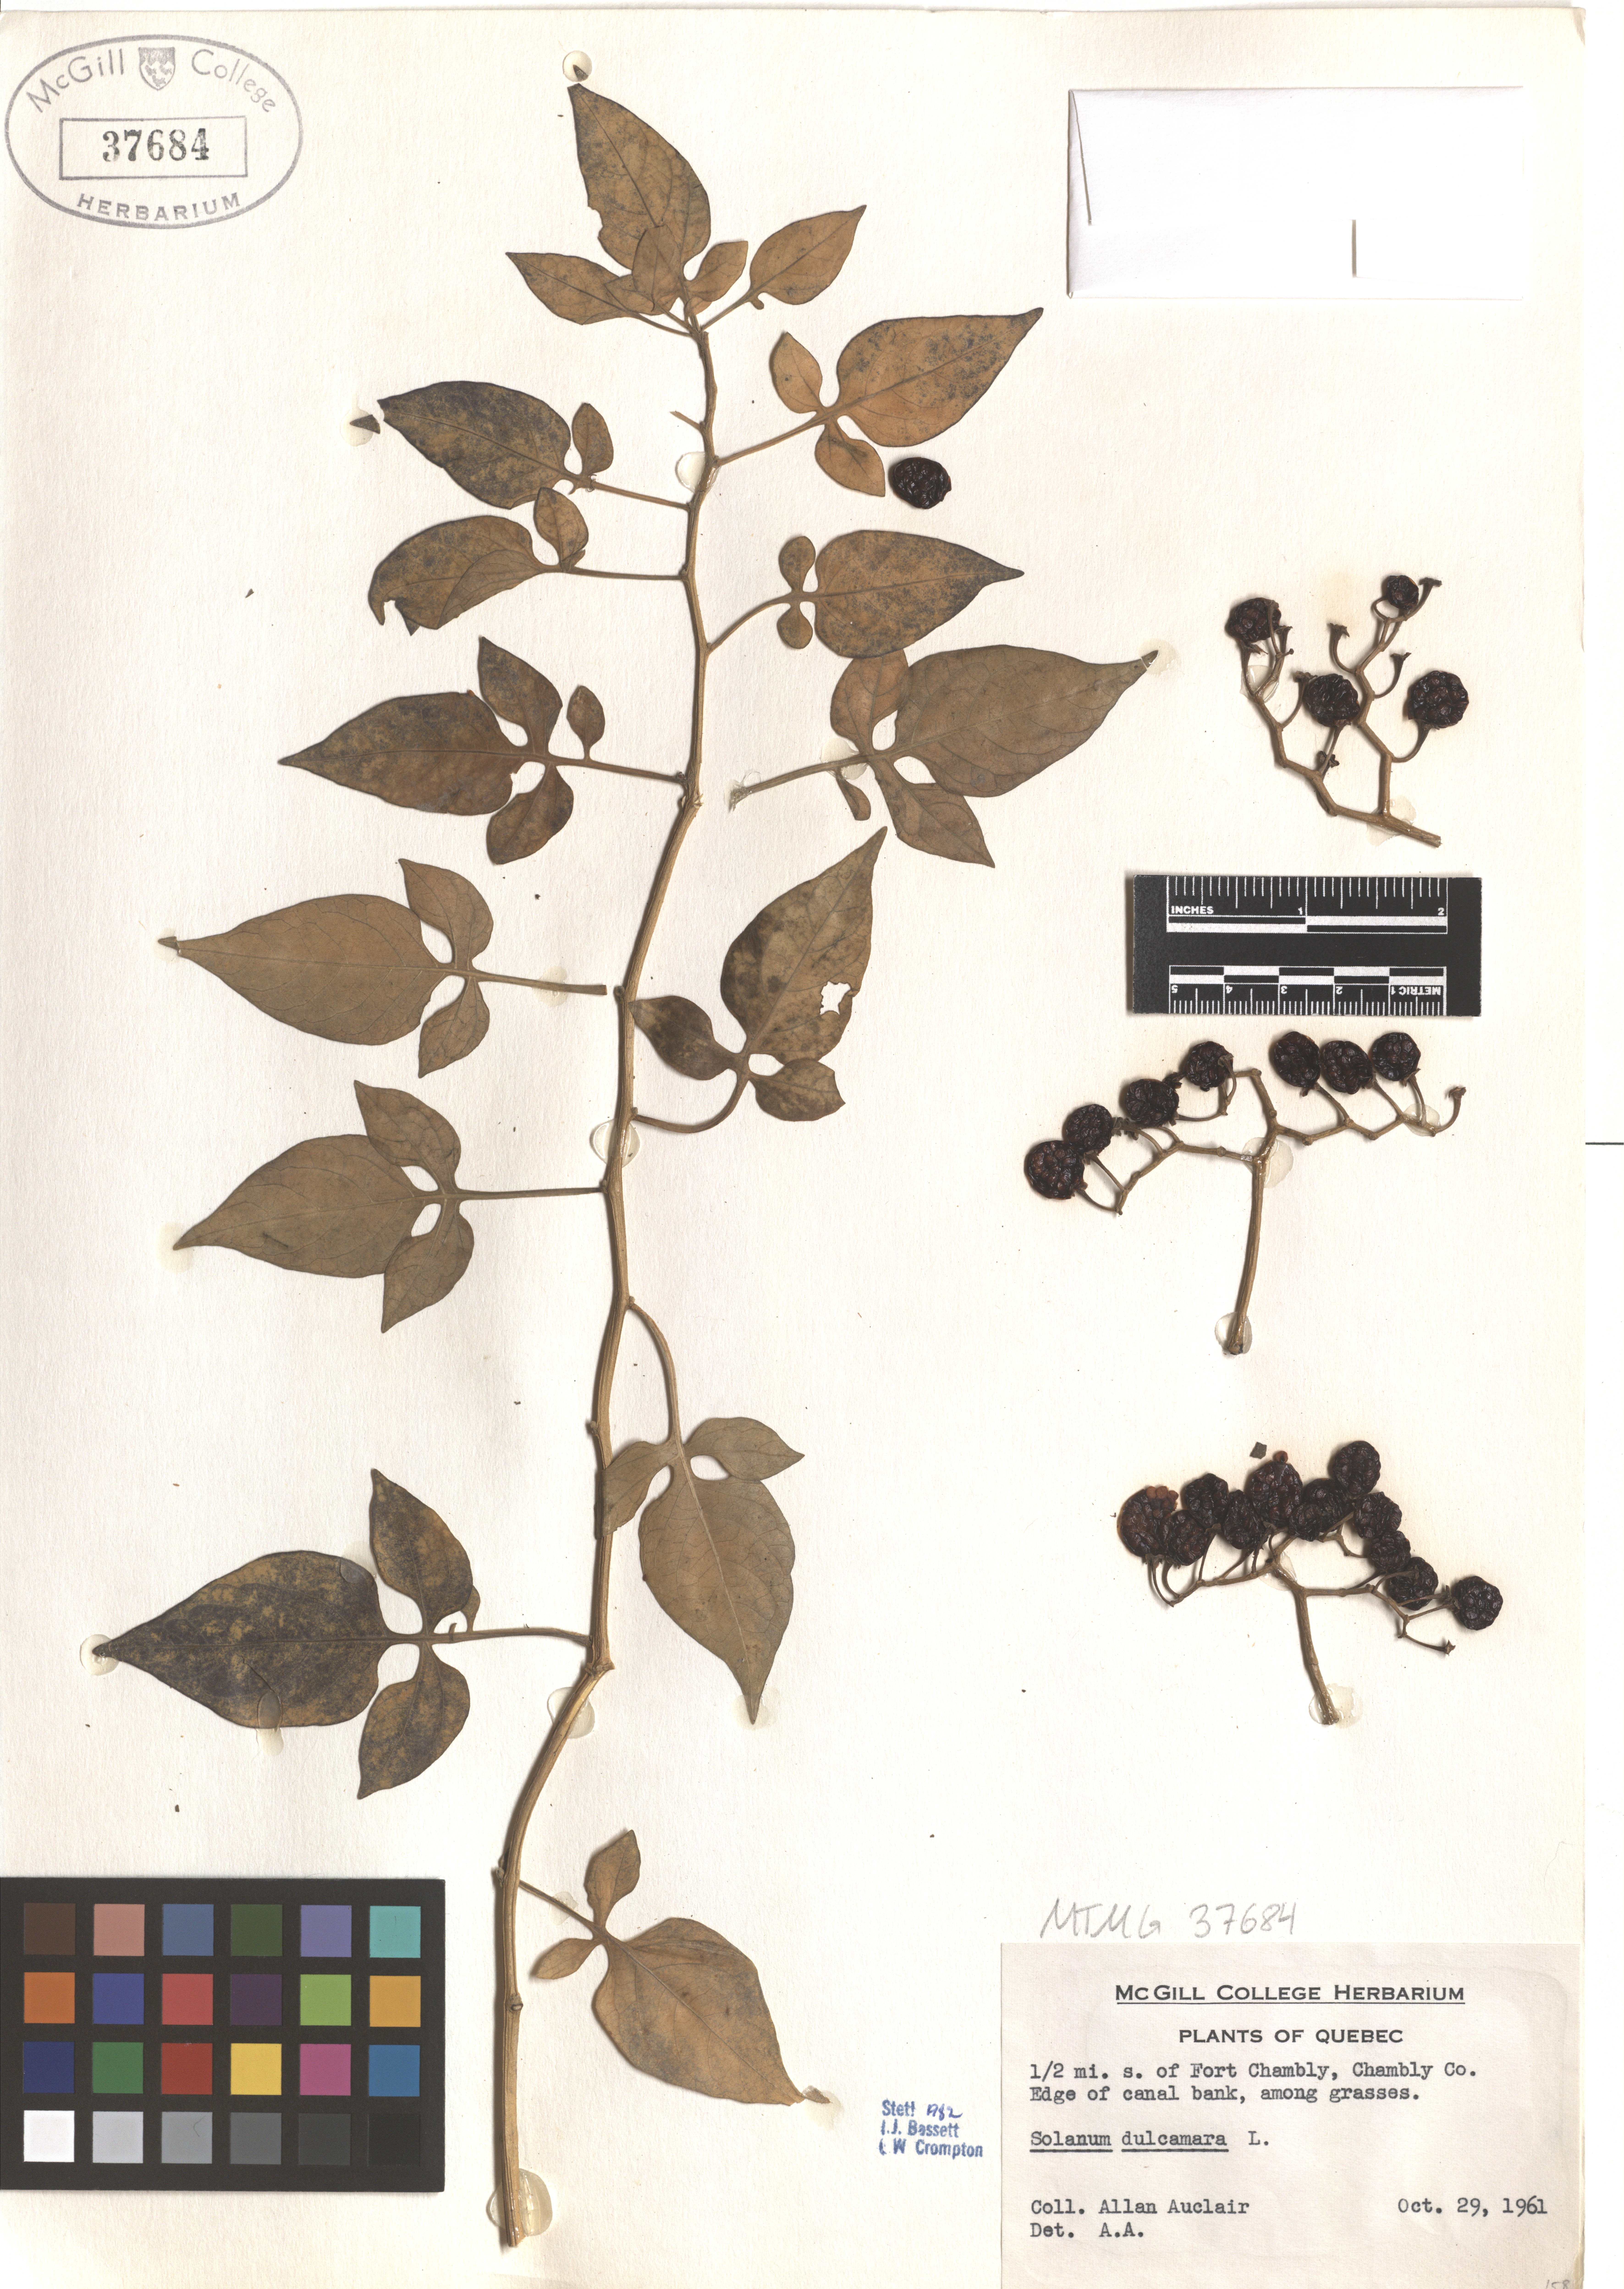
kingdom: Plantae
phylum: Tracheophyta
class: Magnoliopsida
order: Solanales
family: Solanaceae
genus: Solanum
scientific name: Solanum dulcamara
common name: Climbing nightshade
